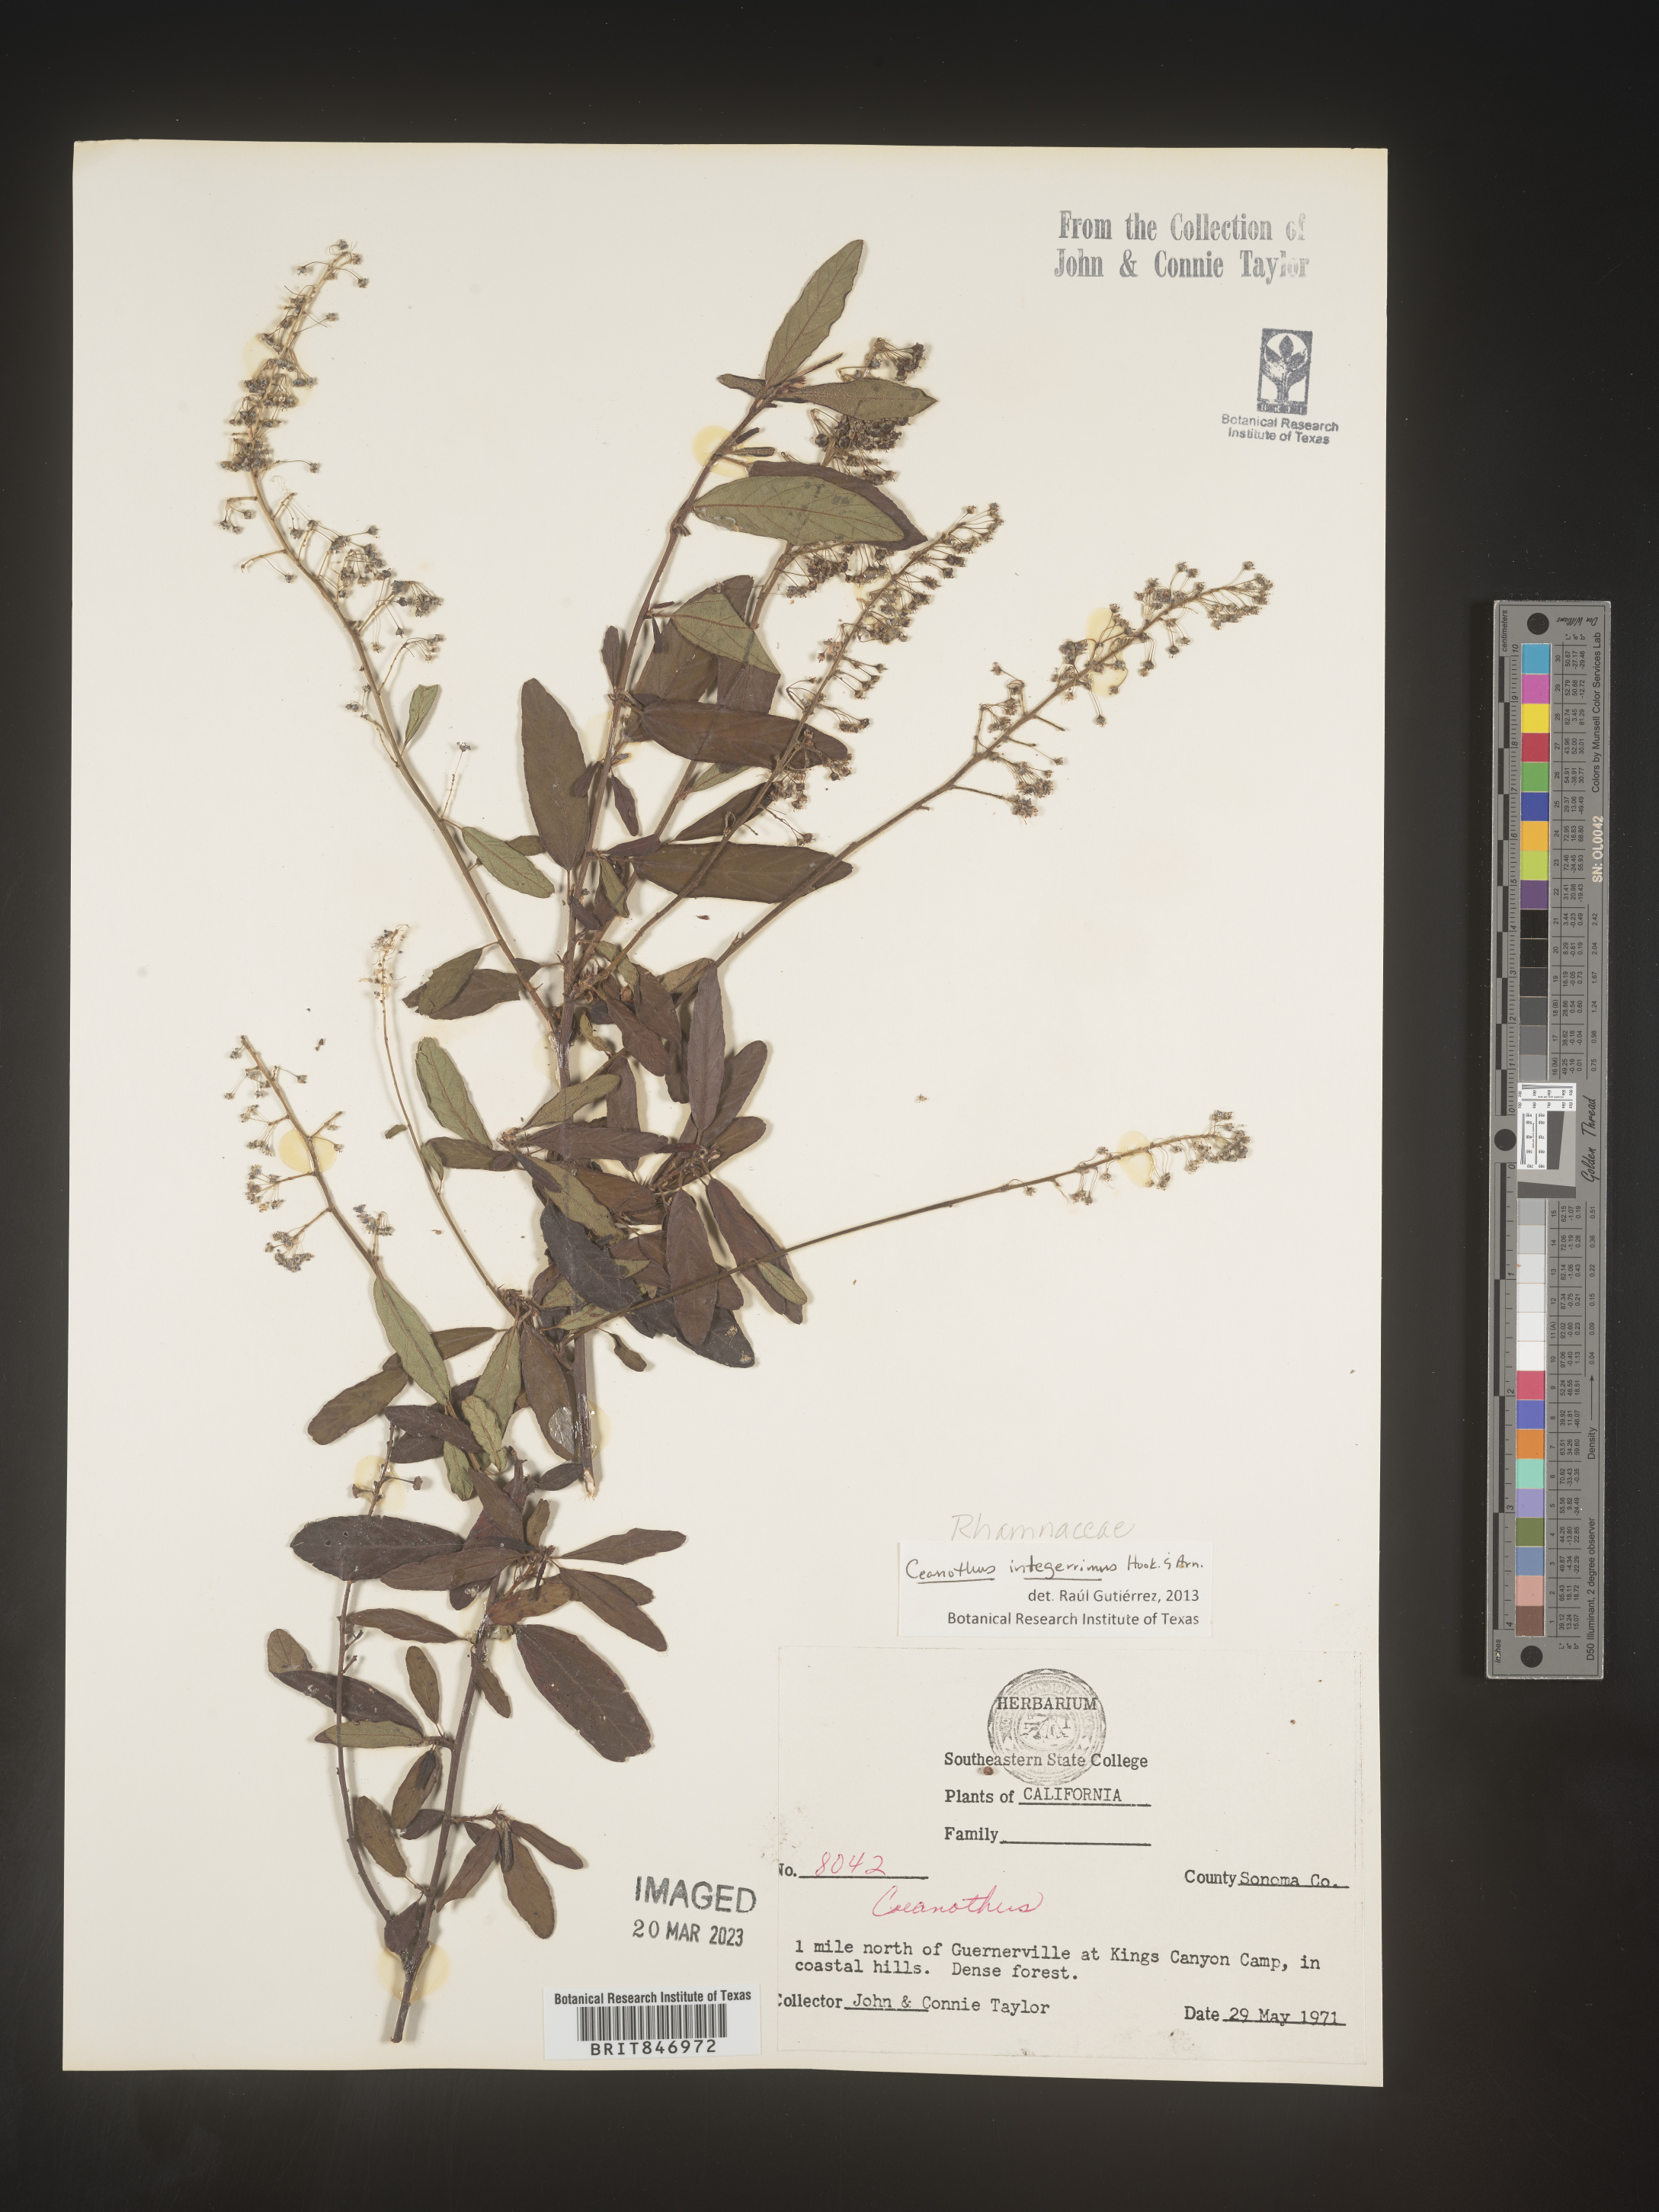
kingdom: Plantae
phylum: Tracheophyta
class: Magnoliopsida
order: Rosales
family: Rhamnaceae
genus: Ceanothus
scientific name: Ceanothus integerrimus
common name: Deerbrush ceanothus
